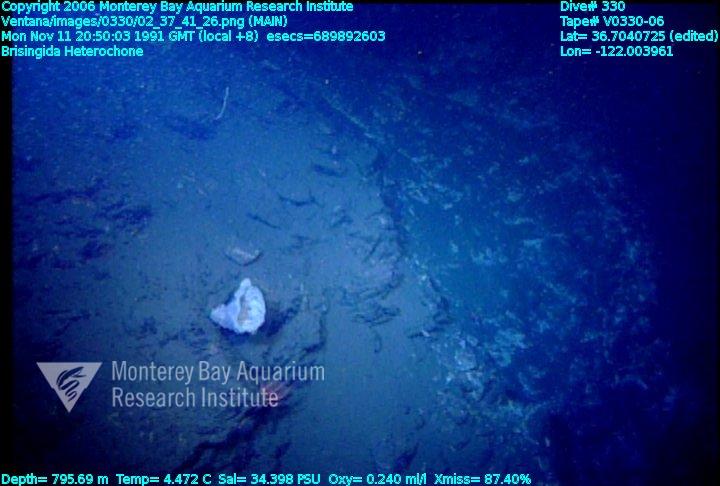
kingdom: Animalia
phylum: Porifera
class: Hexactinellida
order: Sceptrulophora
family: Aphrocallistidae
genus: Heterochone
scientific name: Heterochone
